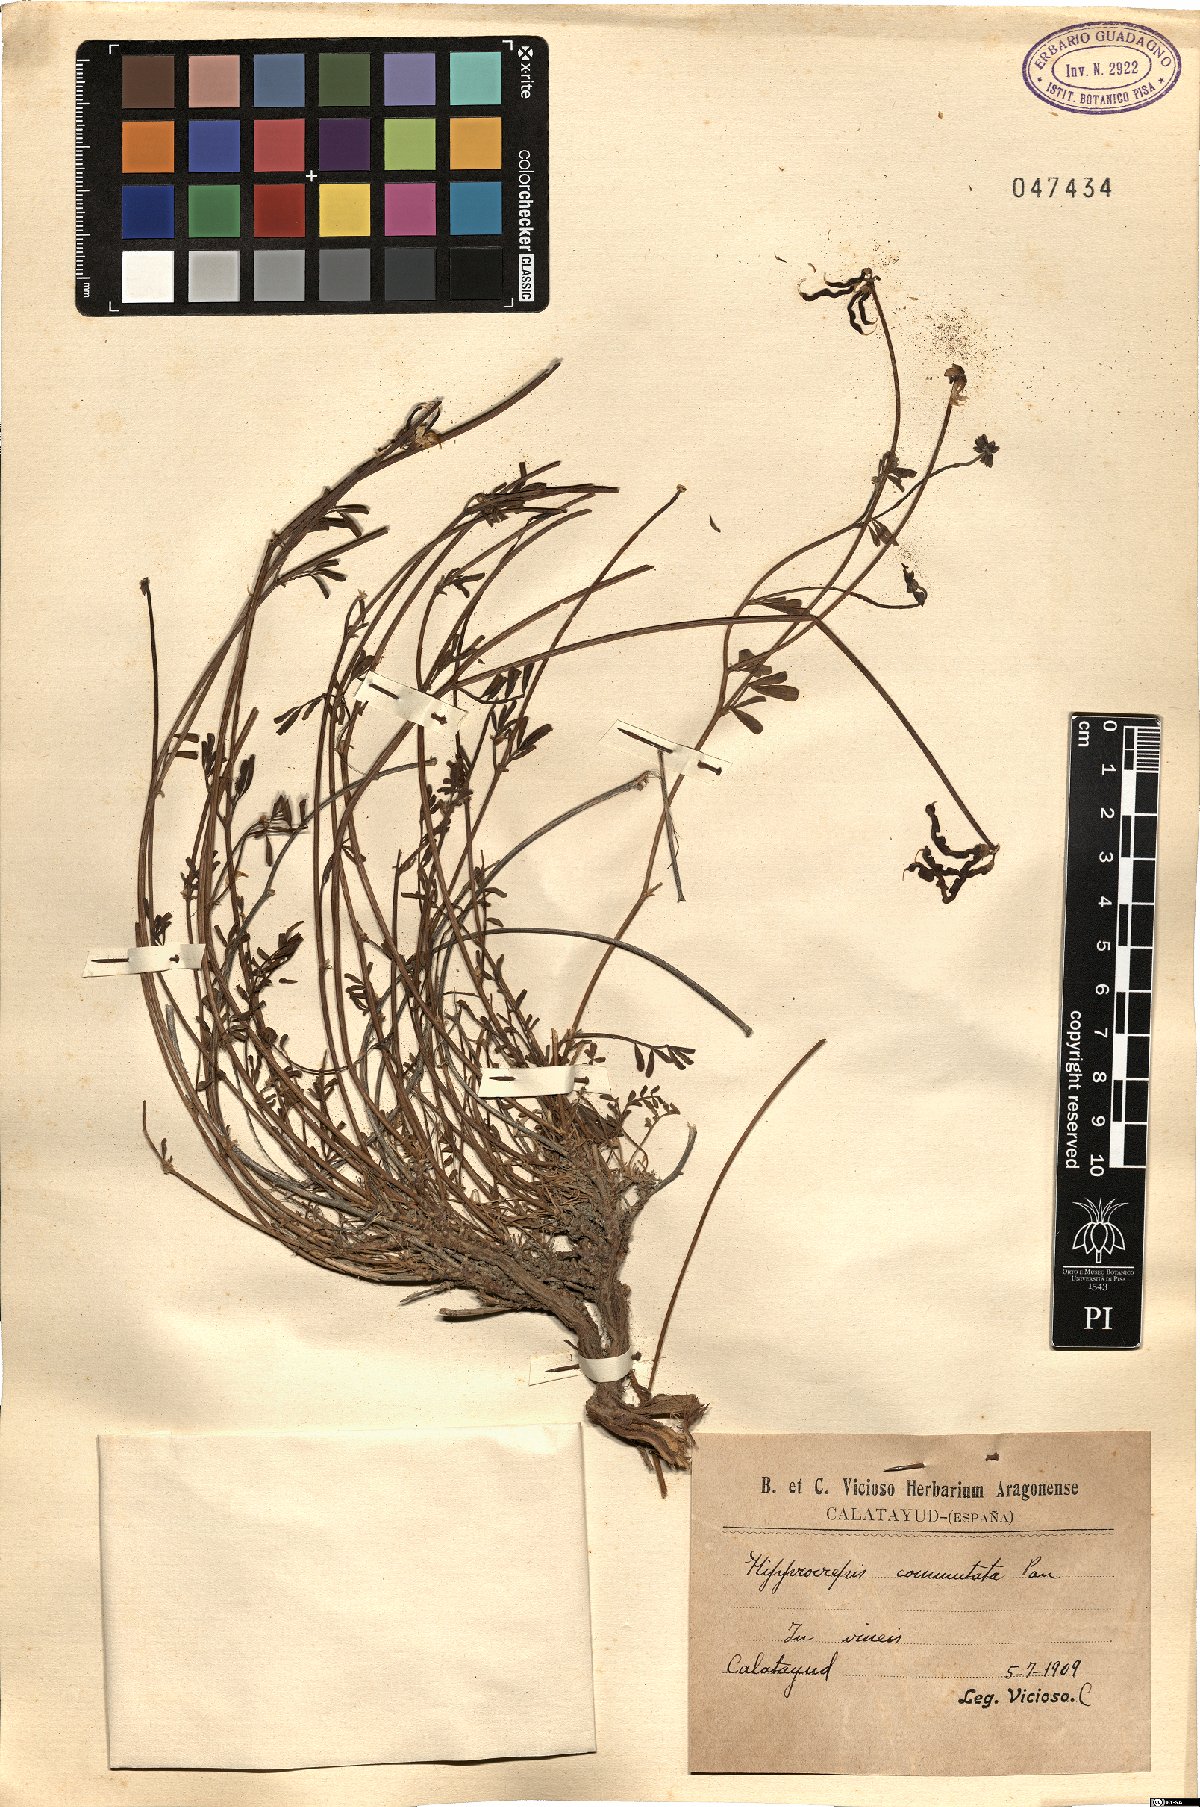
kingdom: Plantae
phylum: Tracheophyta
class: Magnoliopsida
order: Fabales
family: Fabaceae
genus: Hippocrepis
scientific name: Hippocrepis scabra
